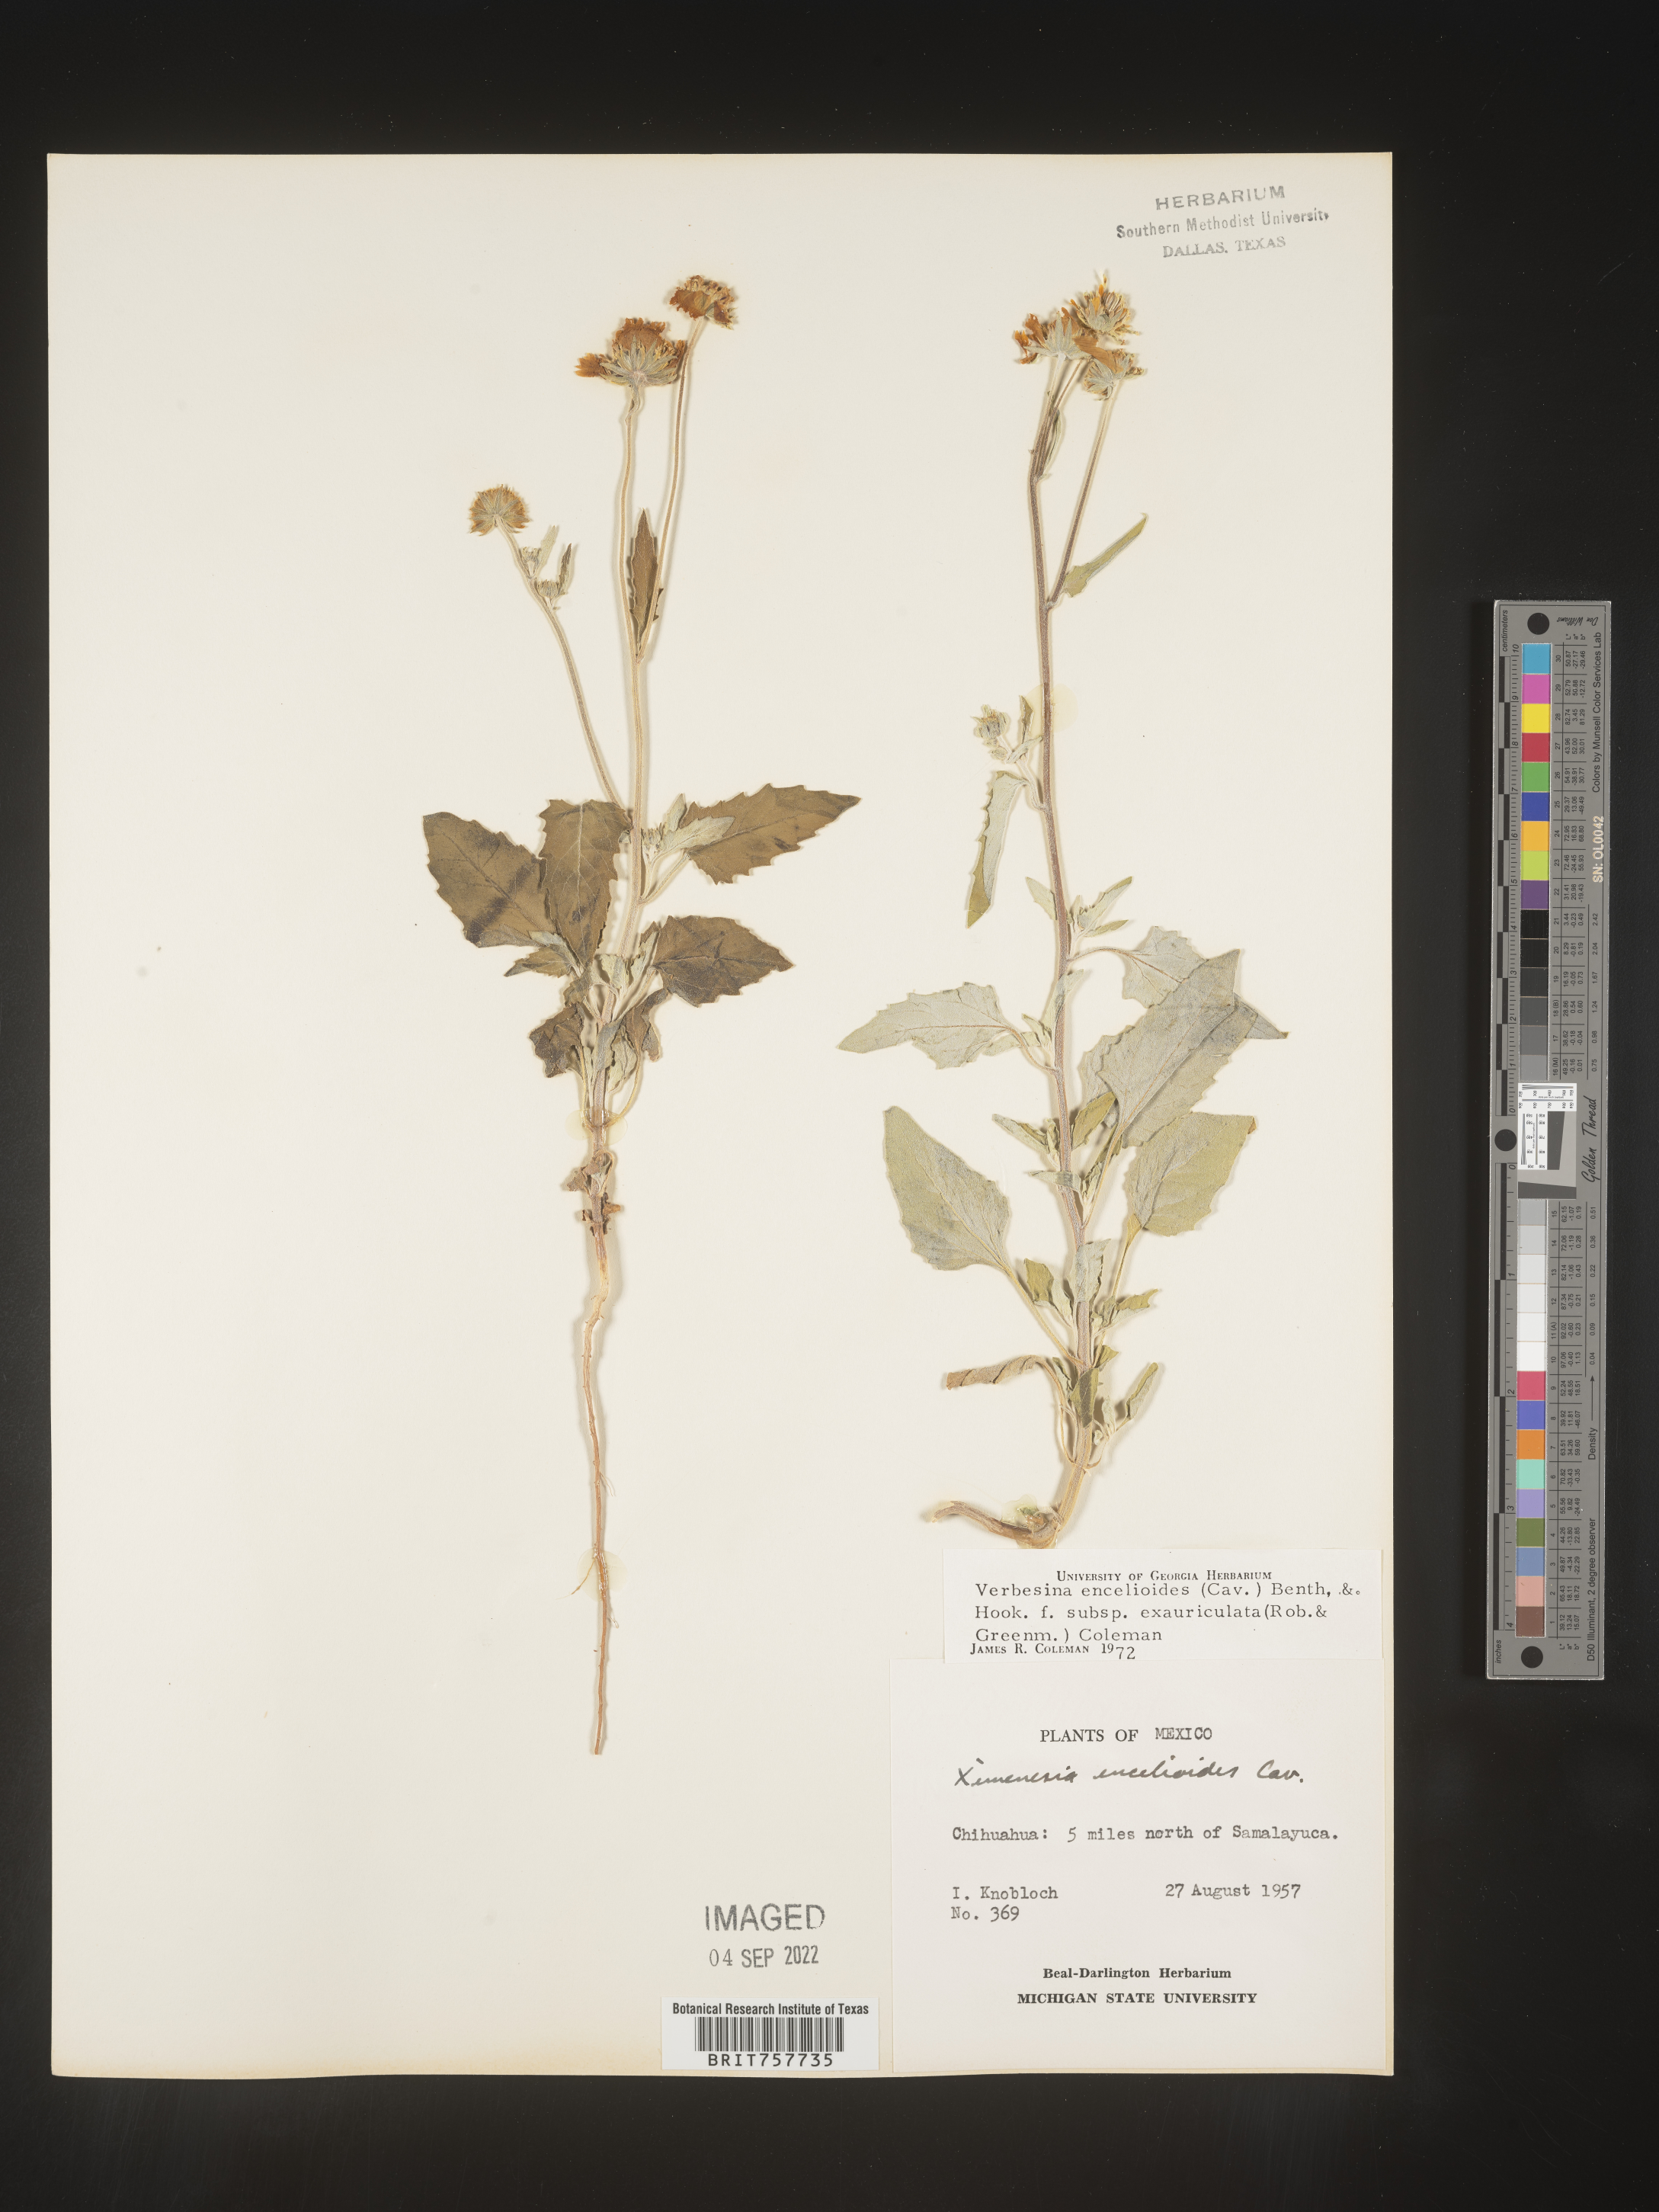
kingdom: Plantae
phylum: Tracheophyta
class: Magnoliopsida
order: Asterales
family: Asteraceae
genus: Verbesina
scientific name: Verbesina
